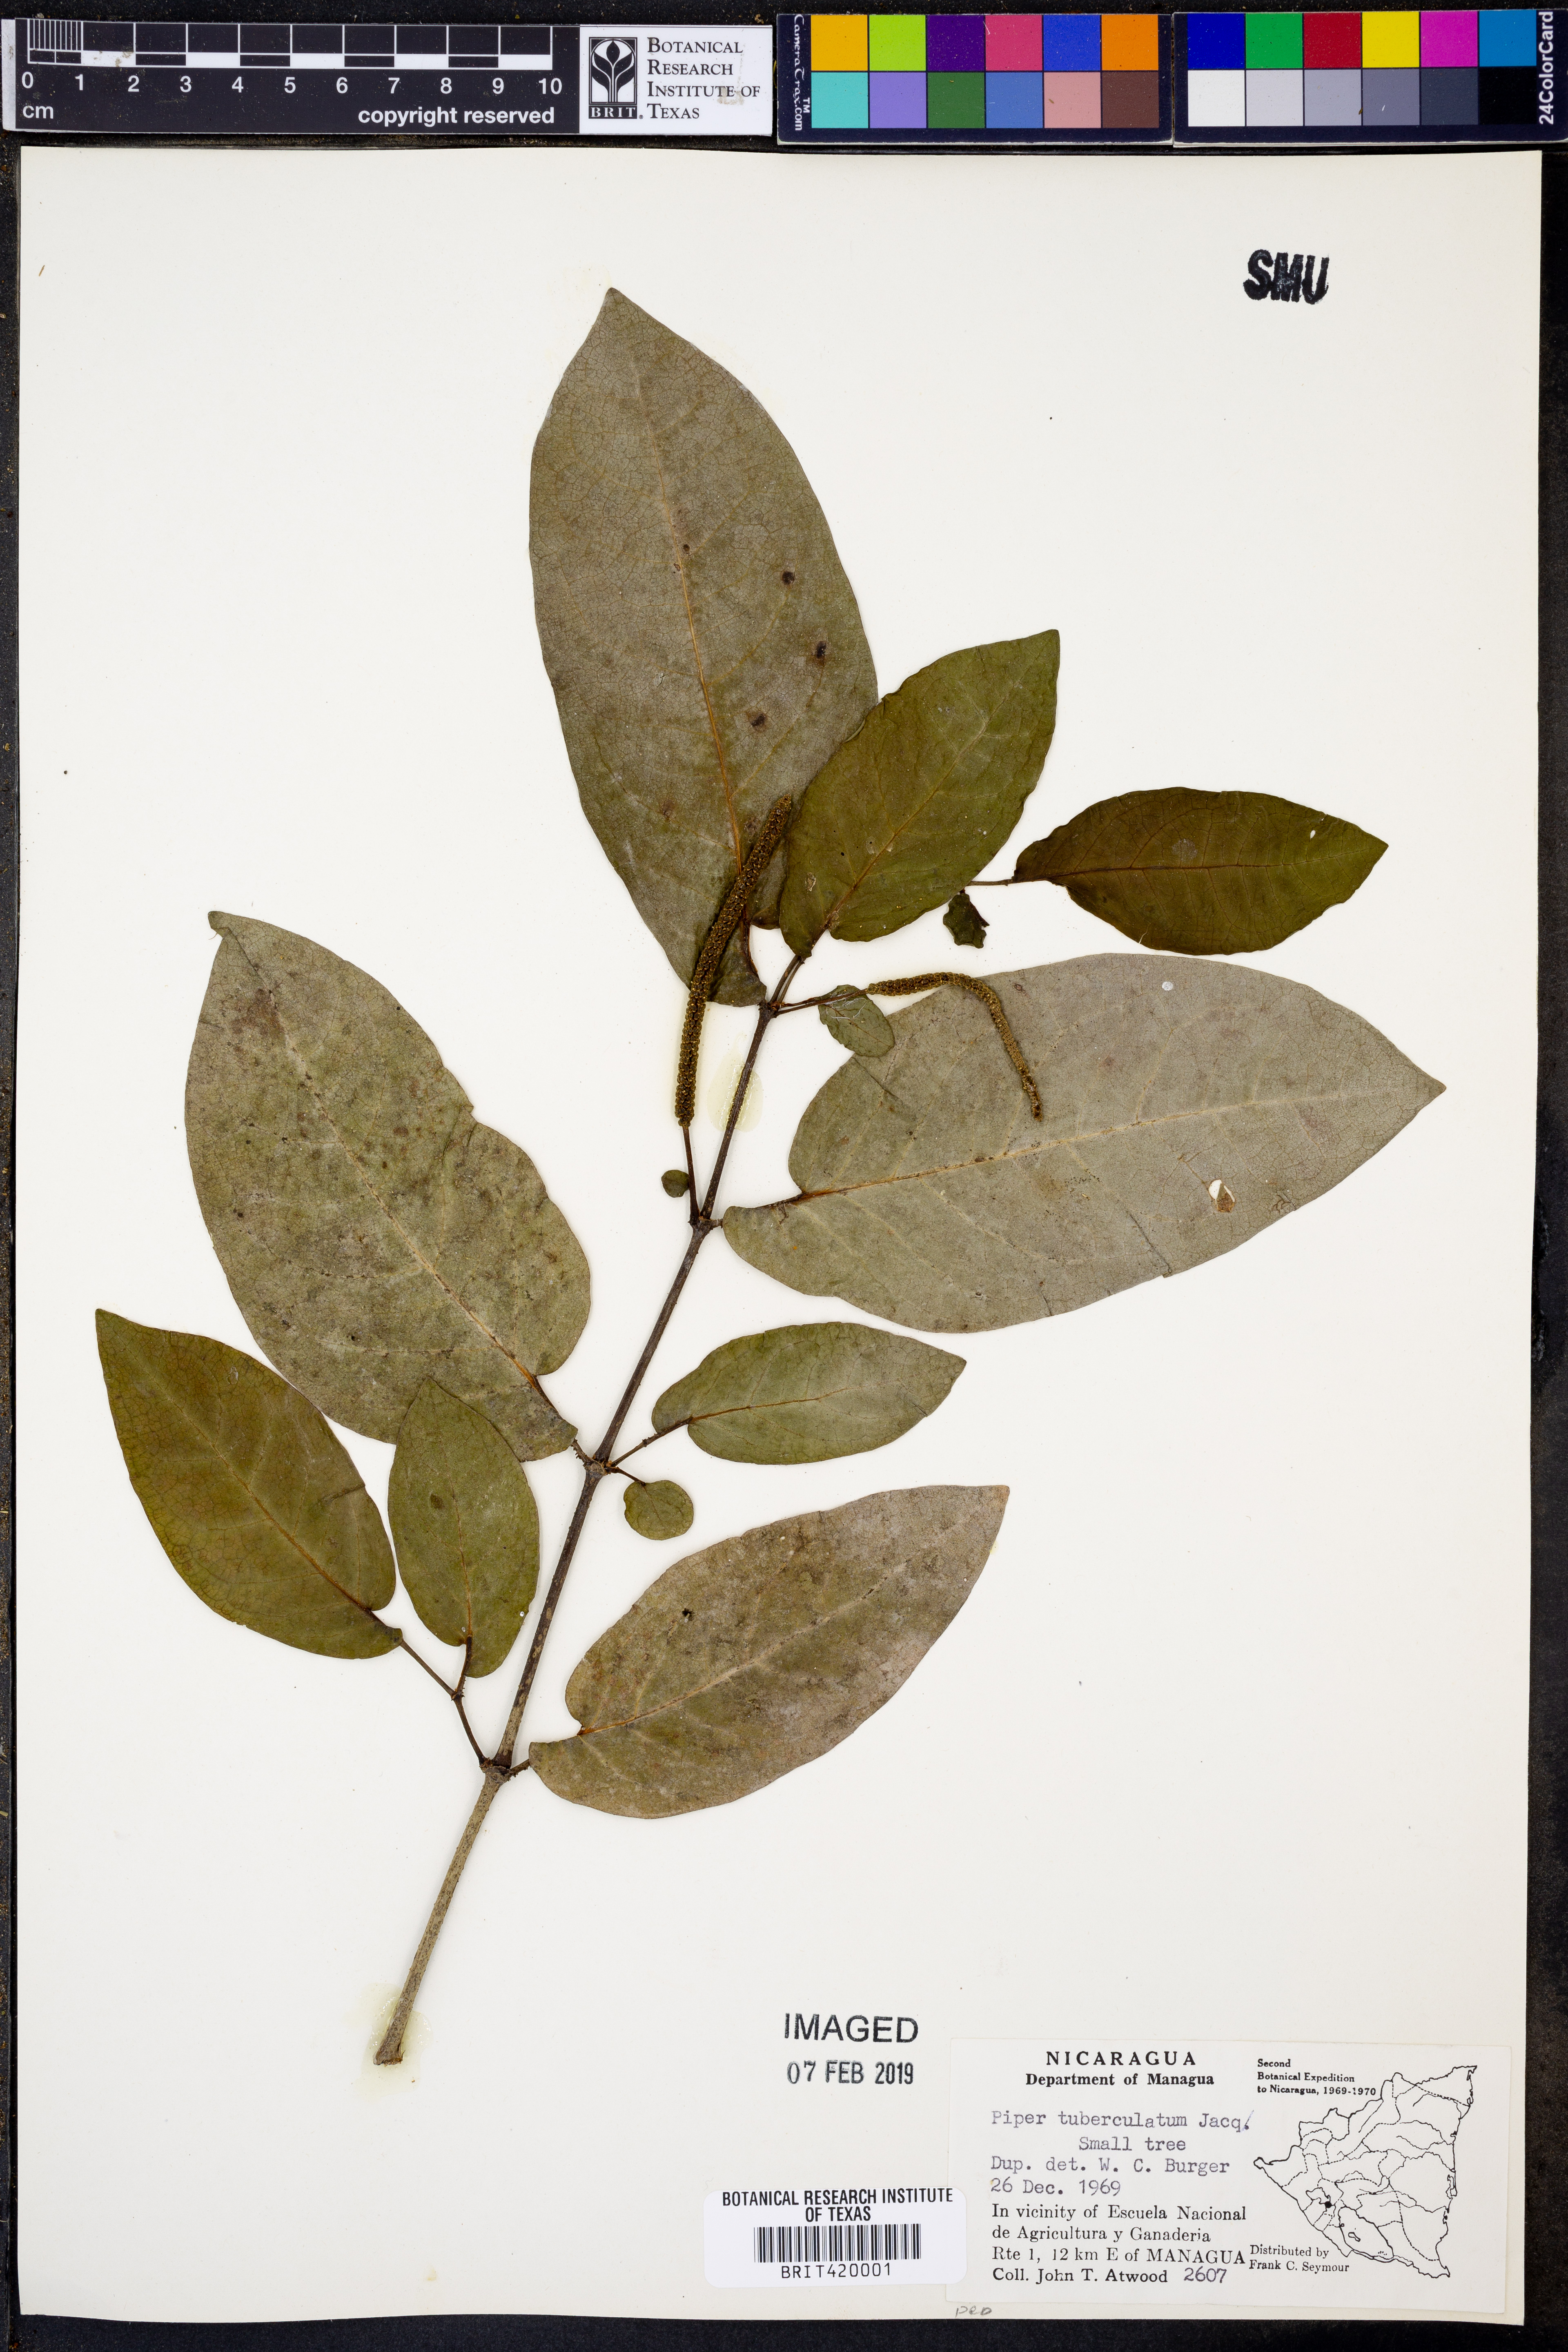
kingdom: Plantae
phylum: Tracheophyta
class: Magnoliopsida
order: Piperales
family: Piperaceae
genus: Piper
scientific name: Piper tuberculatum
